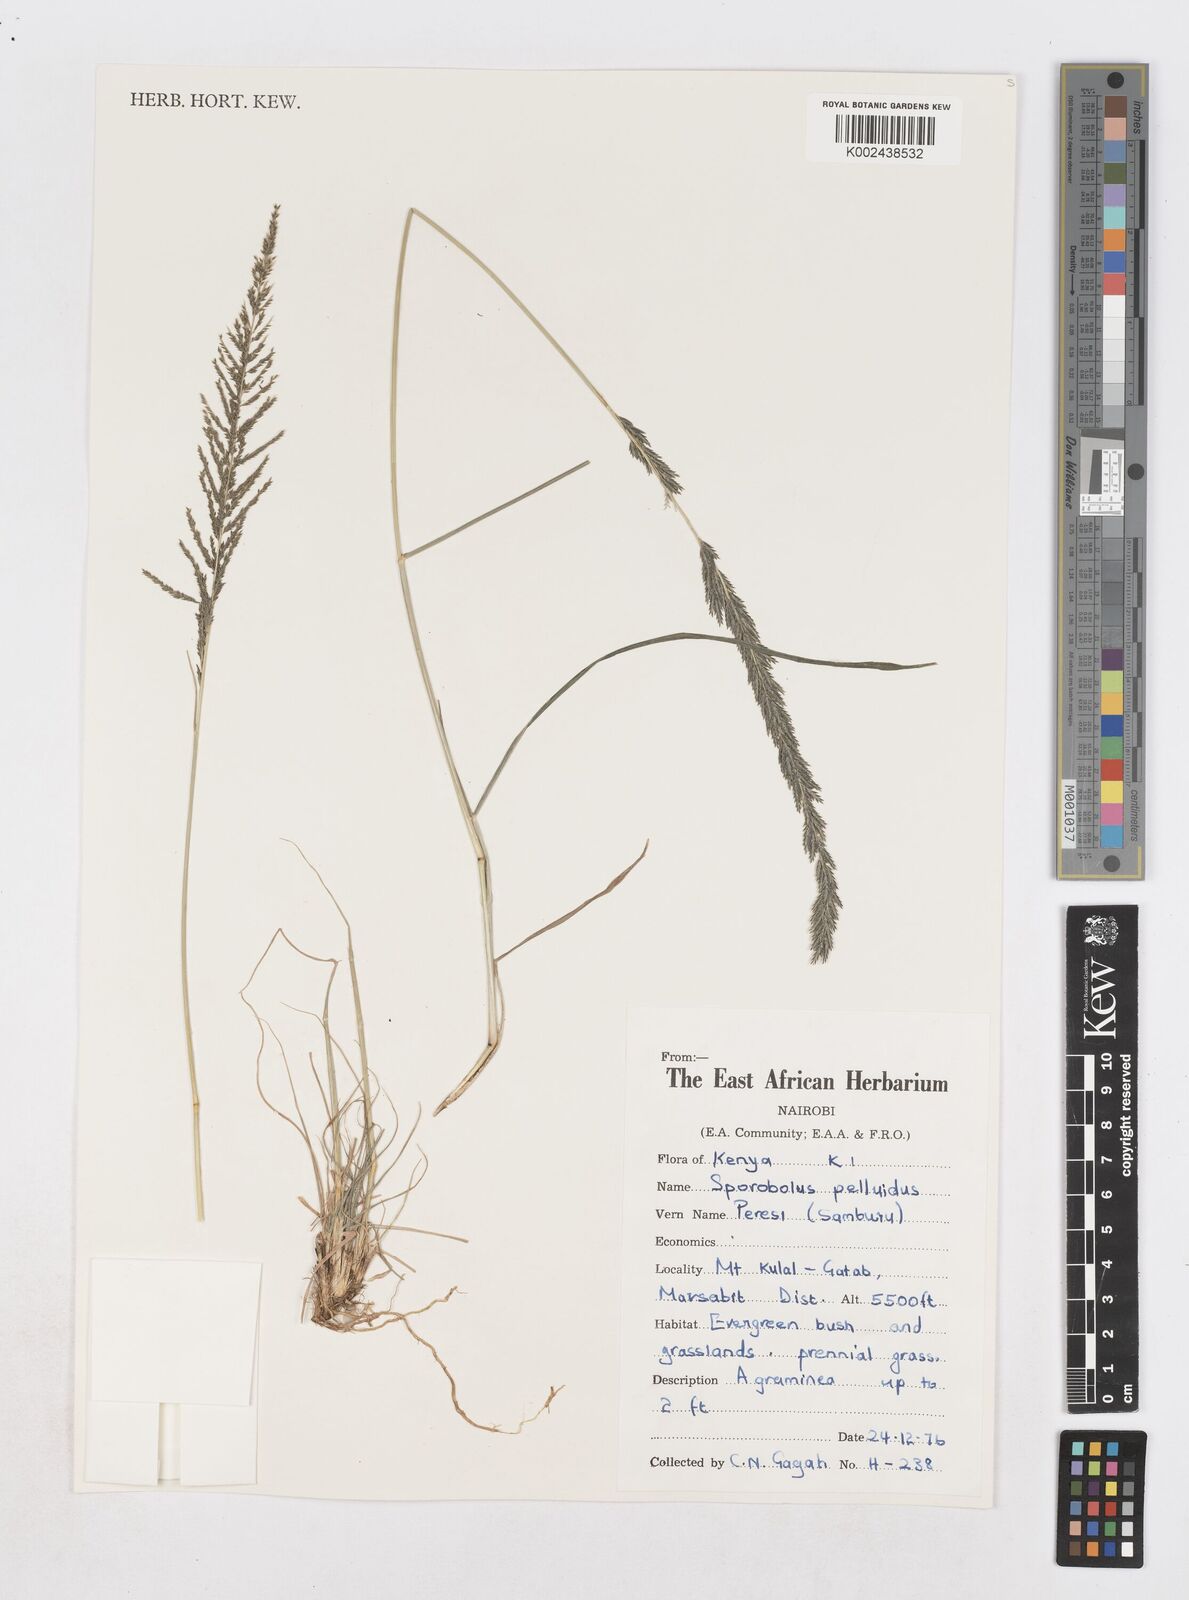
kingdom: Plantae
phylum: Tracheophyta
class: Liliopsida
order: Poales
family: Poaceae
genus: Sporobolus
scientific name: Sporobolus pellucidus
